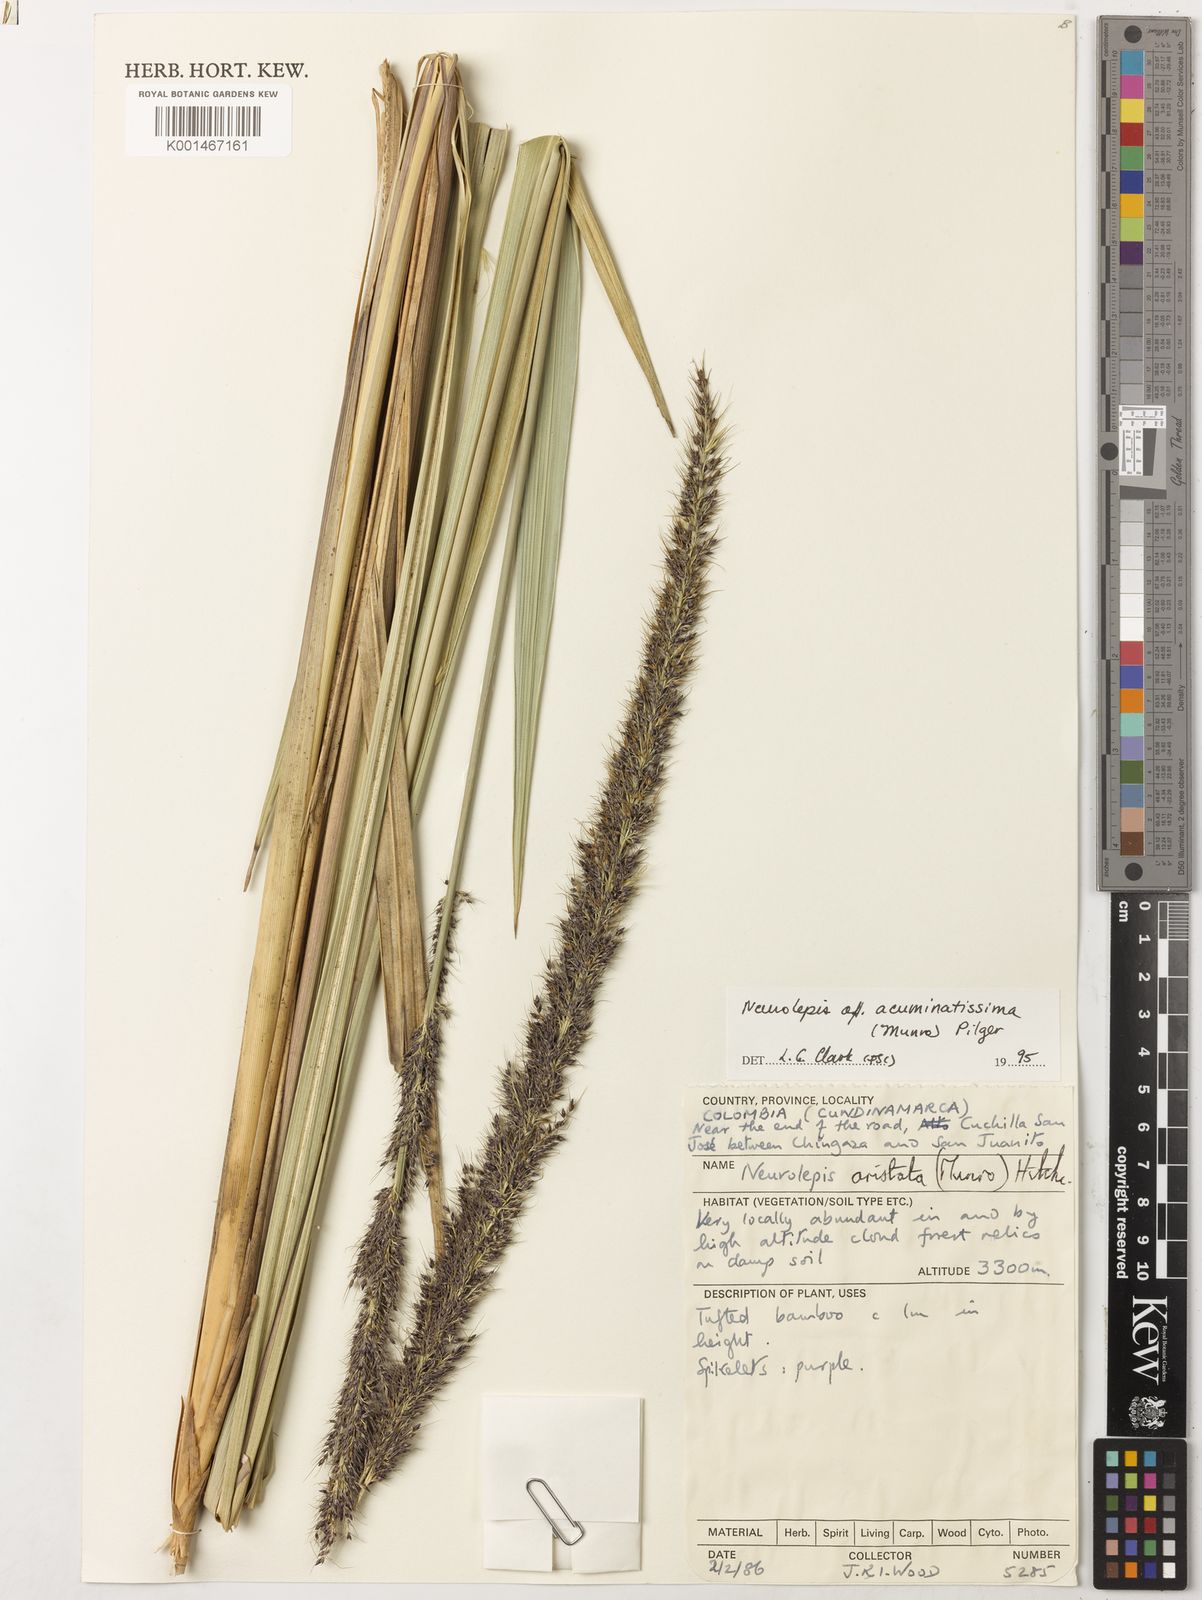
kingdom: Plantae
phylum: Tracheophyta
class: Liliopsida
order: Poales
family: Poaceae
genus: Chusquea
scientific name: Chusquea
